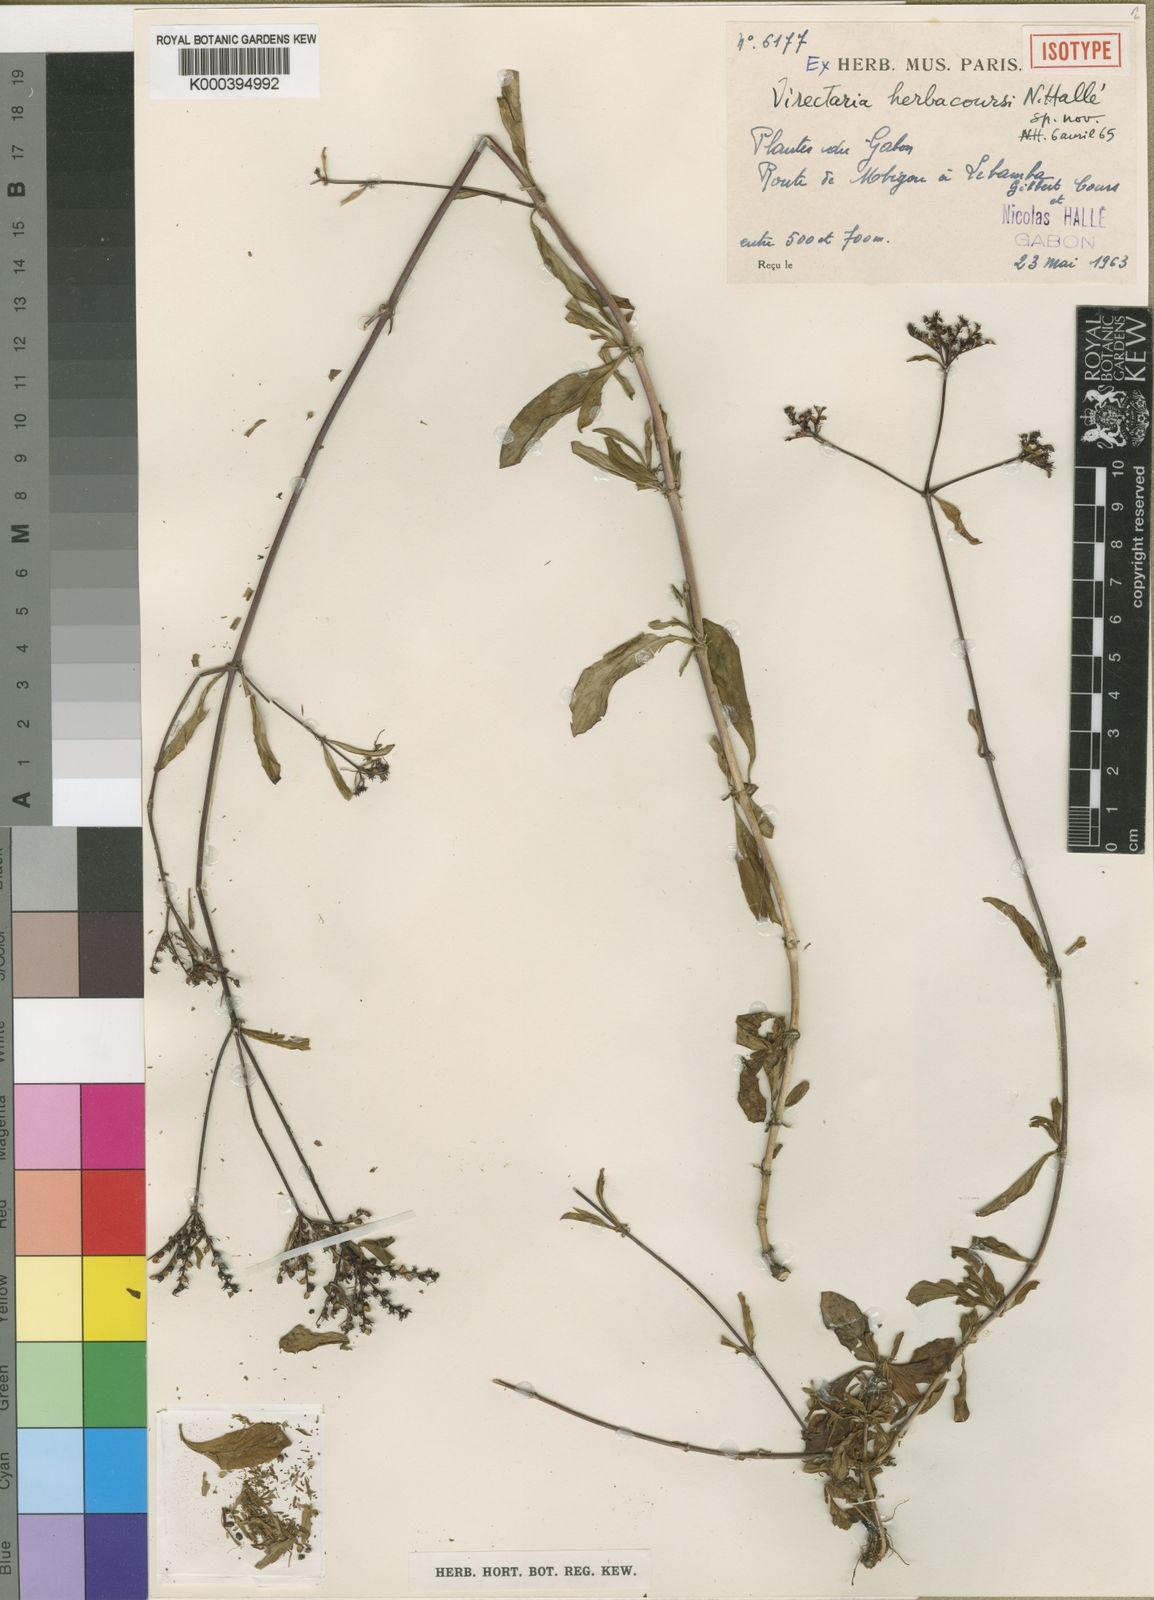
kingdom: Plantae
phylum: Tracheophyta
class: Magnoliopsida
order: Gentianales
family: Rubiaceae
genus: Virectaria
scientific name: Virectaria
